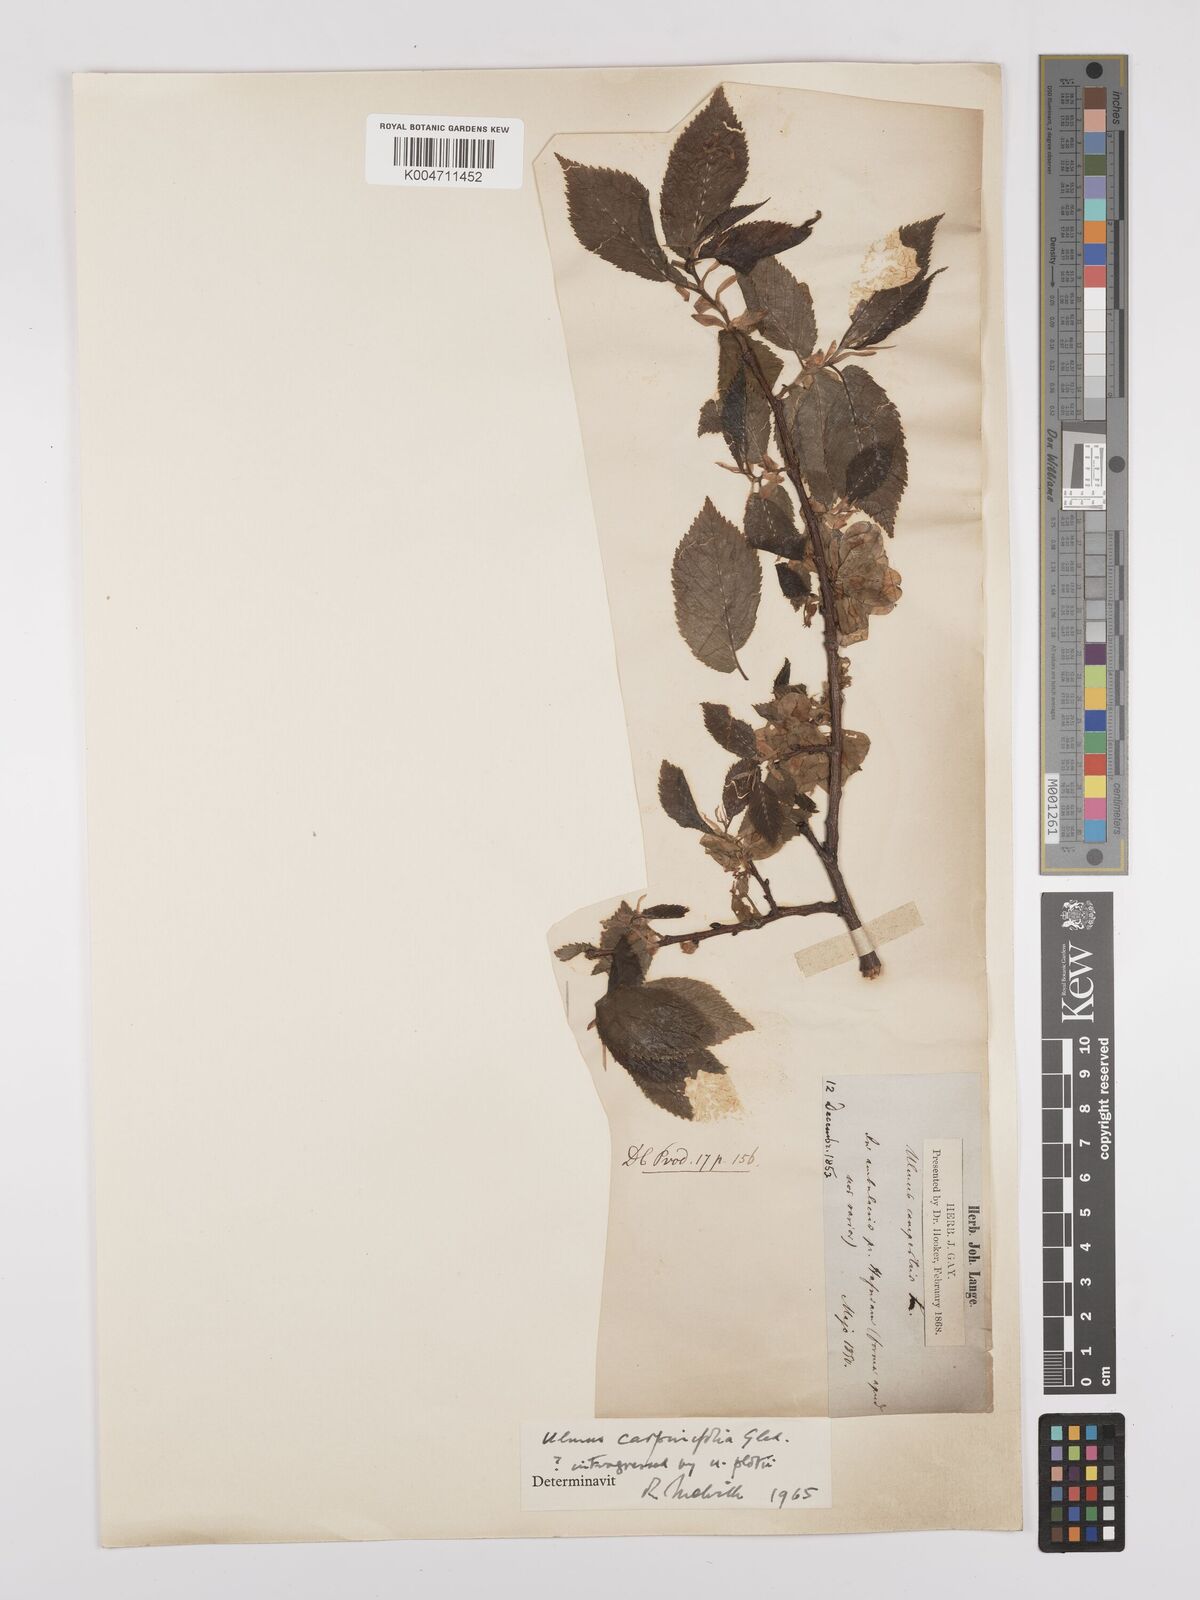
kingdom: Plantae
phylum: Tracheophyta
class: Magnoliopsida
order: Rosales
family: Ulmaceae
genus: Ulmus
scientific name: Ulmus minor
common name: Small-leaved elm
